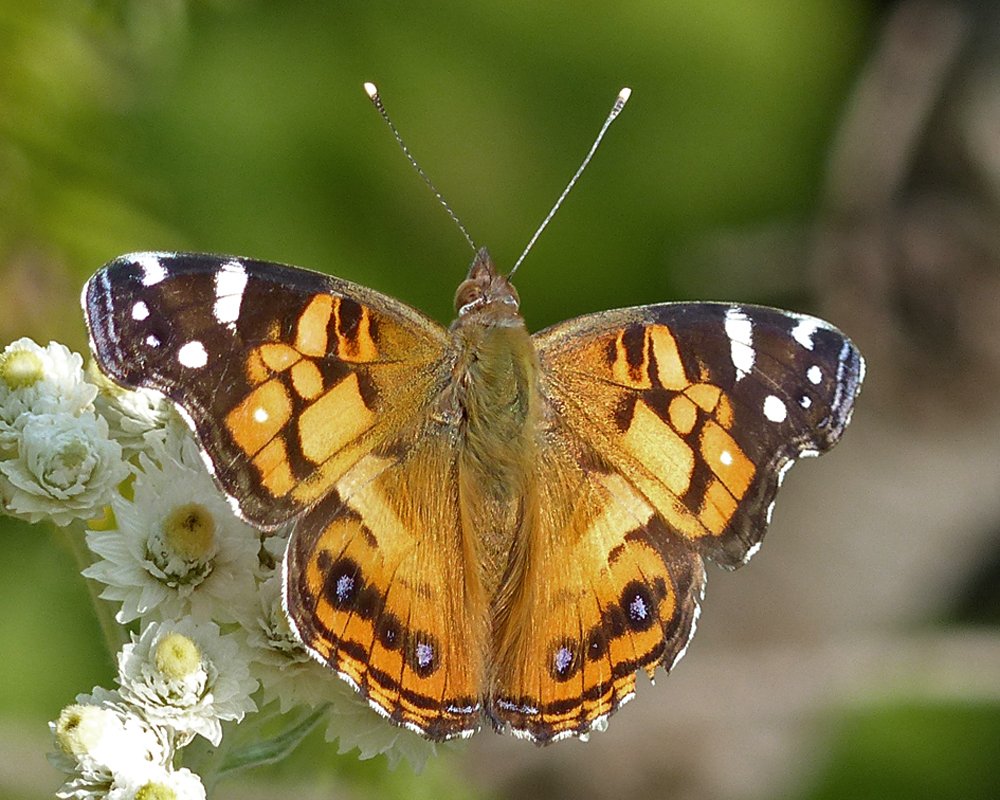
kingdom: Animalia
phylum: Arthropoda
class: Insecta
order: Lepidoptera
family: Nymphalidae
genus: Vanessa
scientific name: Vanessa virginiensis
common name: American Lady
